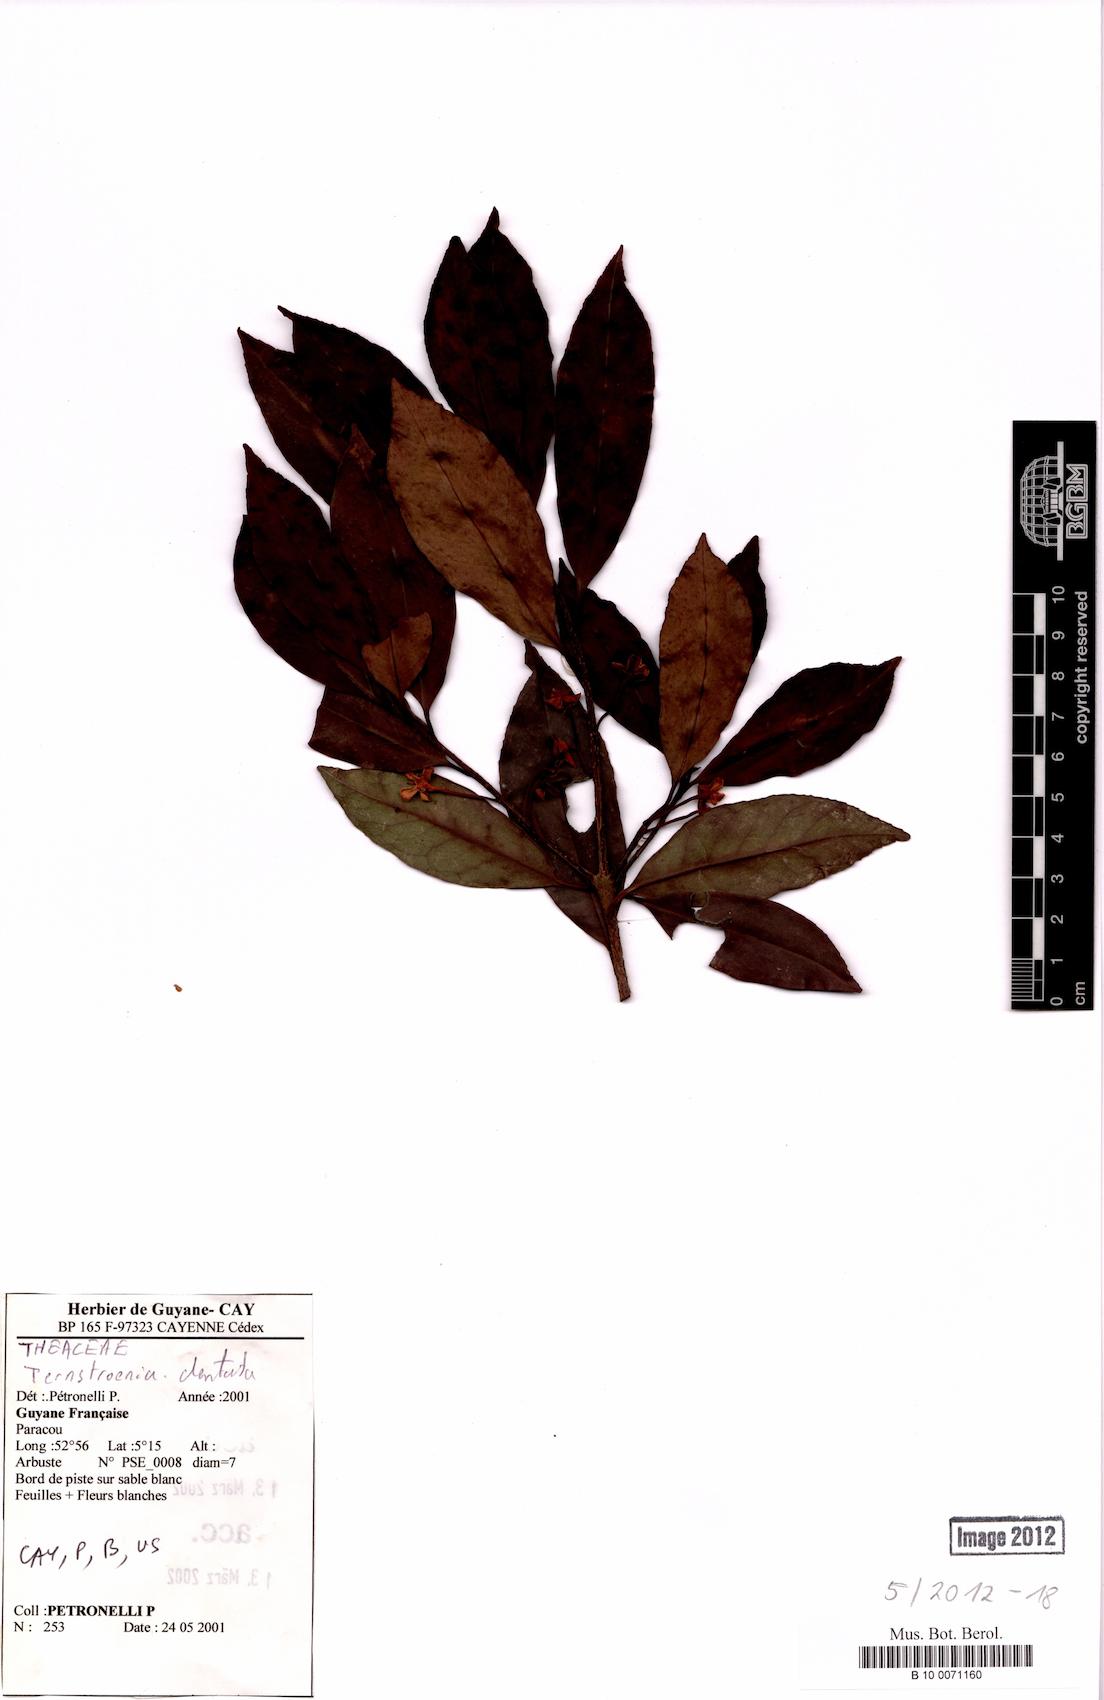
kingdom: Plantae
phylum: Tracheophyta
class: Magnoliopsida
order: Ericales
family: Pentaphylacaceae
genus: Ternstroemia
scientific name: Ternstroemia dentata
